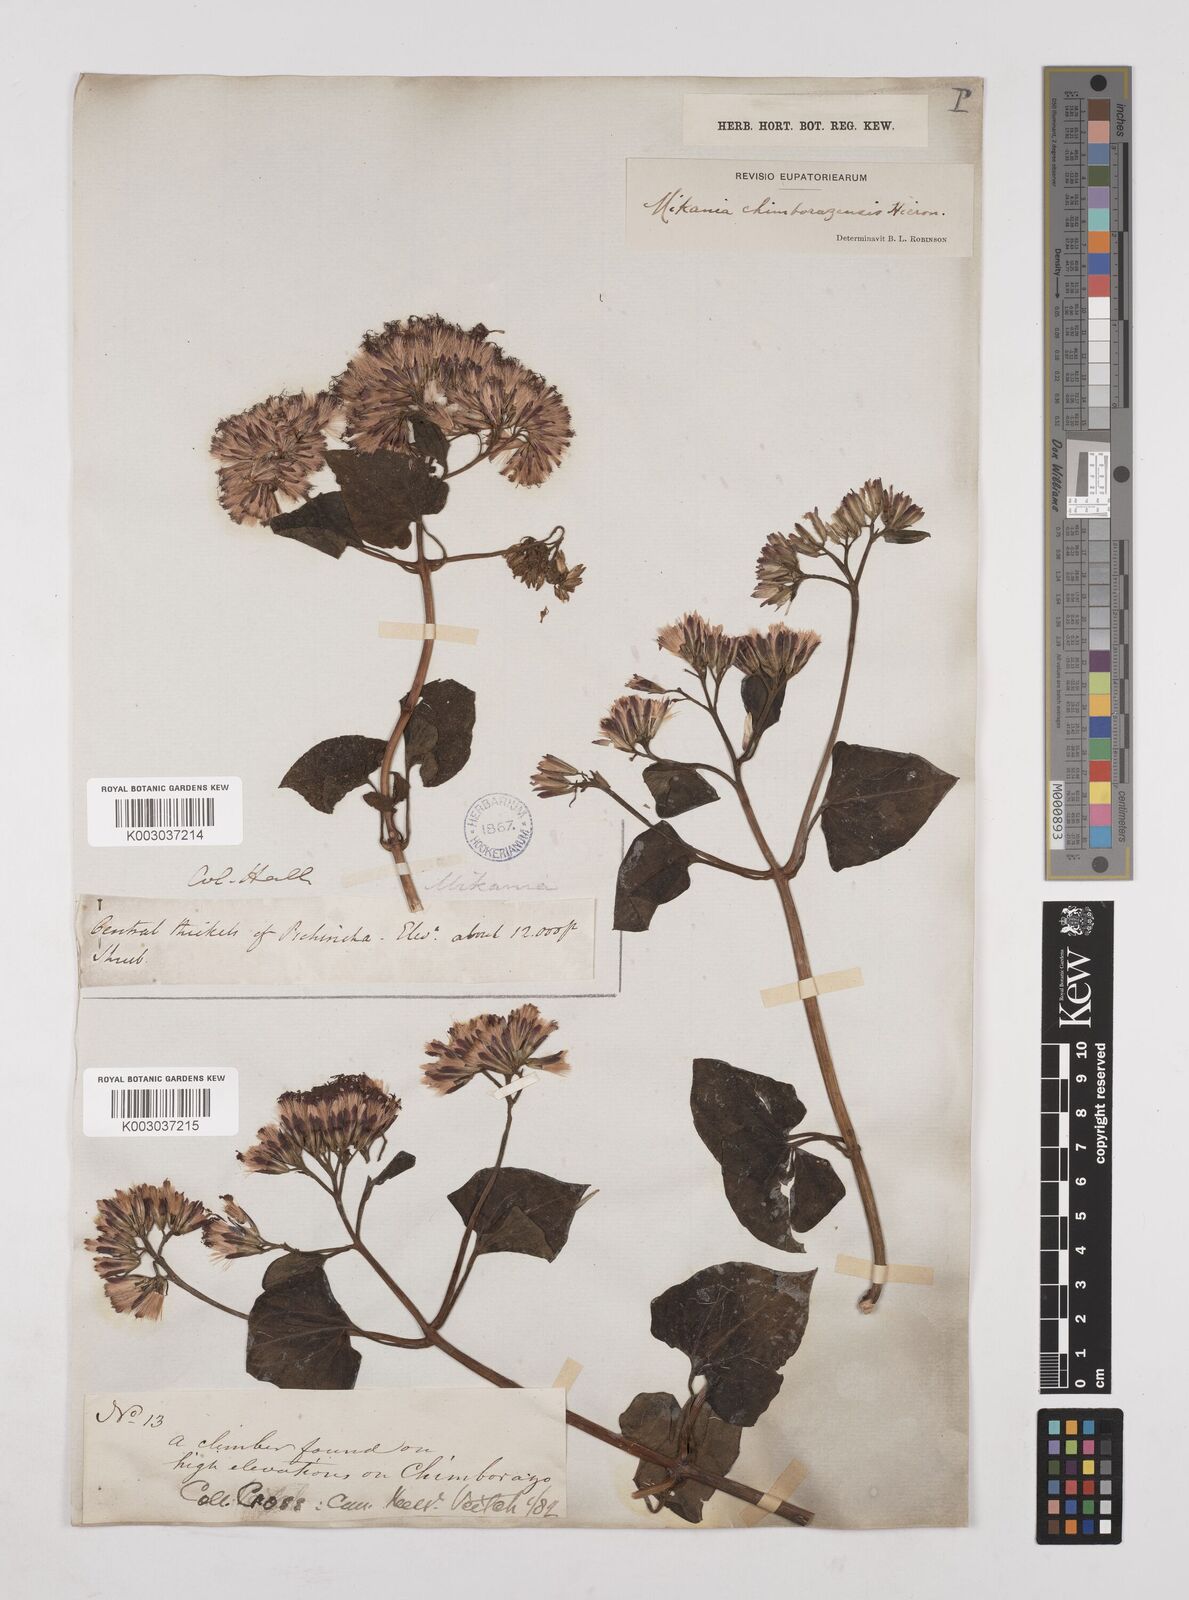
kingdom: Plantae
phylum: Tracheophyta
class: Magnoliopsida
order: Asterales
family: Asteraceae
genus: Mikania
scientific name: Mikania chimborazensis
